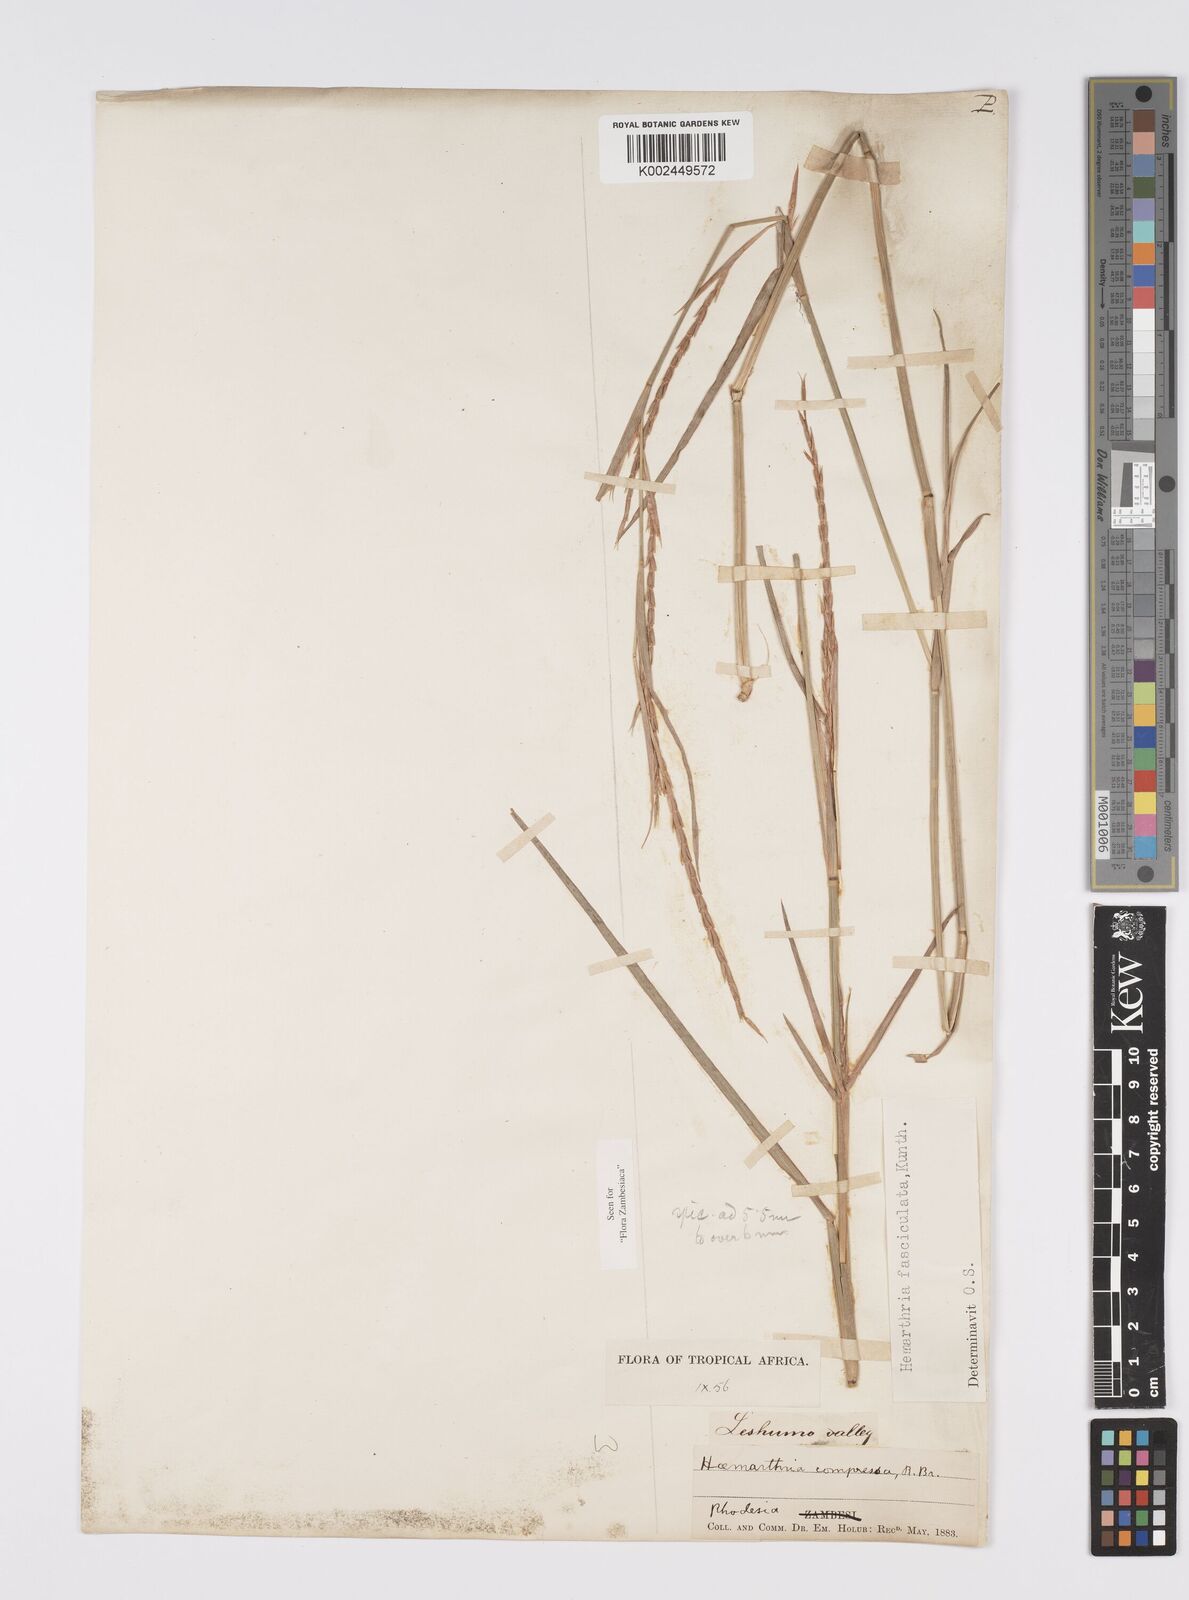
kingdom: Plantae
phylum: Tracheophyta
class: Liliopsida
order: Poales
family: Poaceae
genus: Hemarthria
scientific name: Hemarthria altissima
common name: African jointgrass
